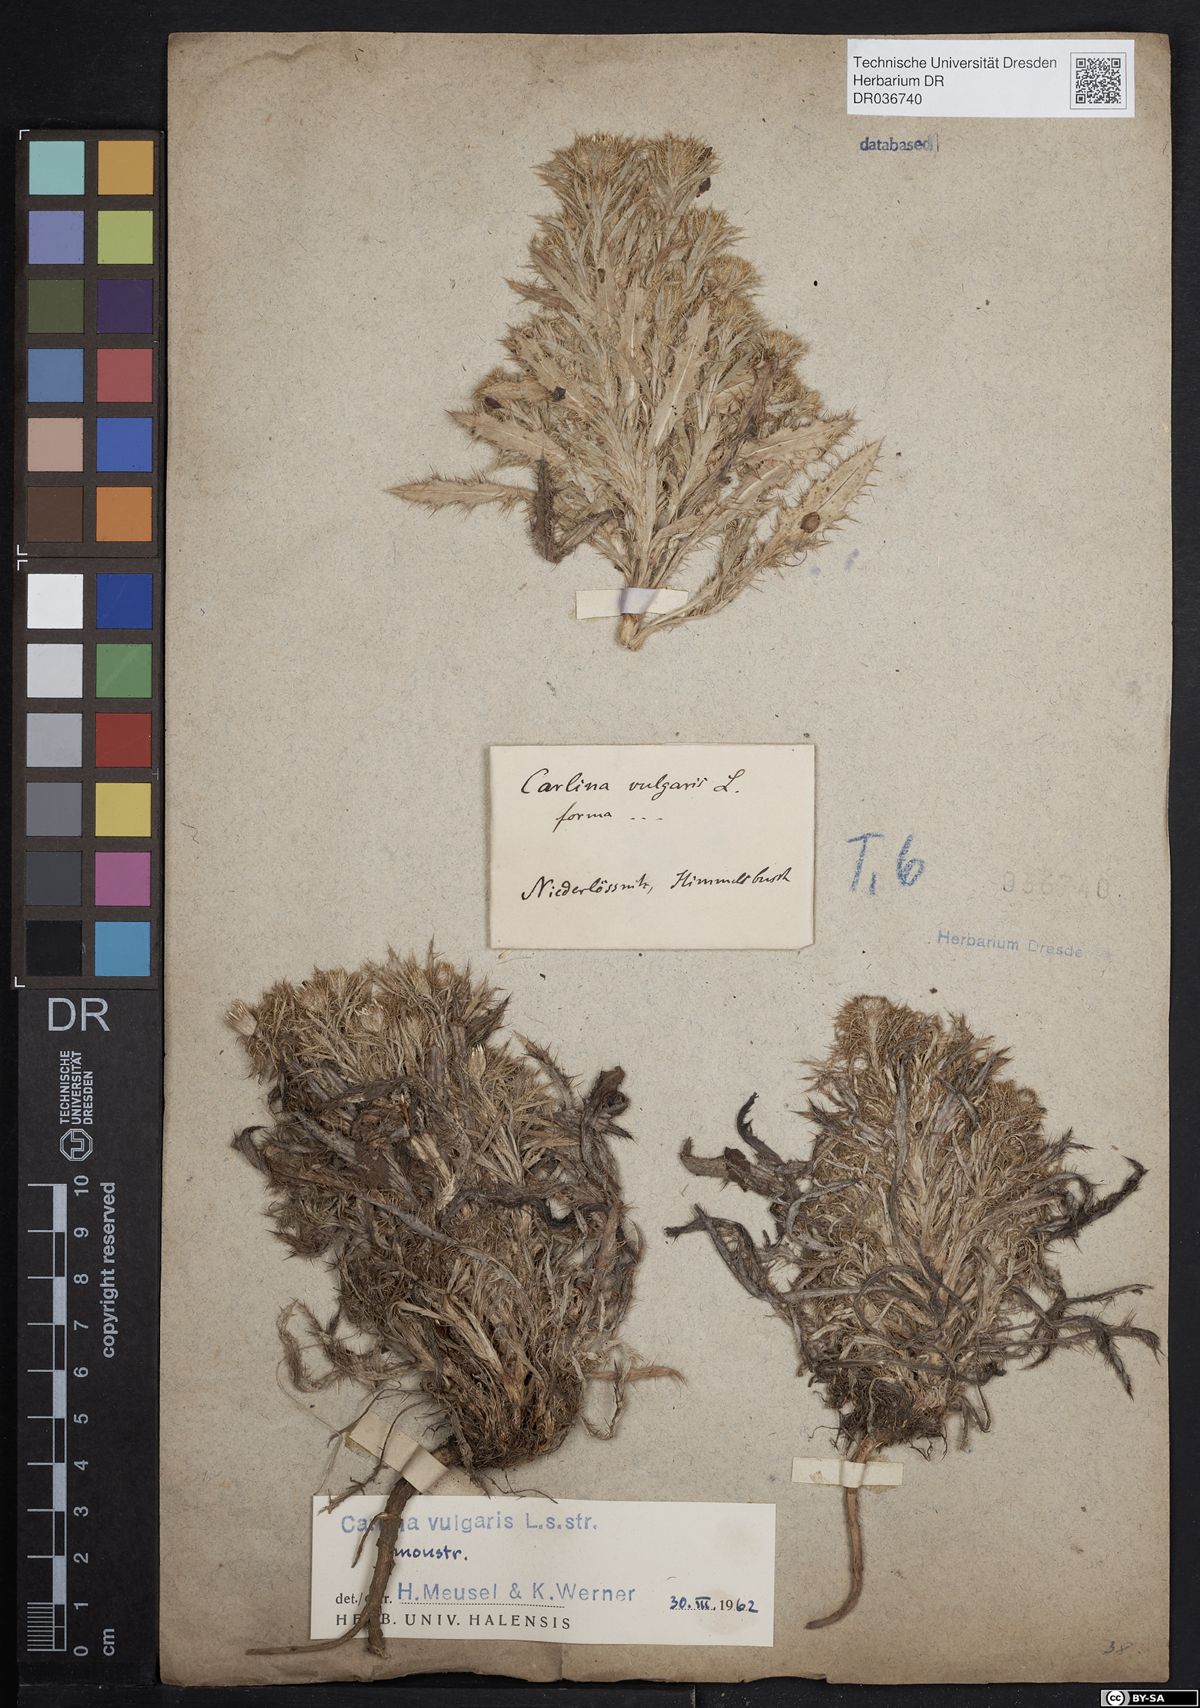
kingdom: Plantae
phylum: Tracheophyta
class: Magnoliopsida
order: Asterales
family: Asteraceae
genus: Carlina
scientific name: Carlina vulgaris
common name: Carline thistle
